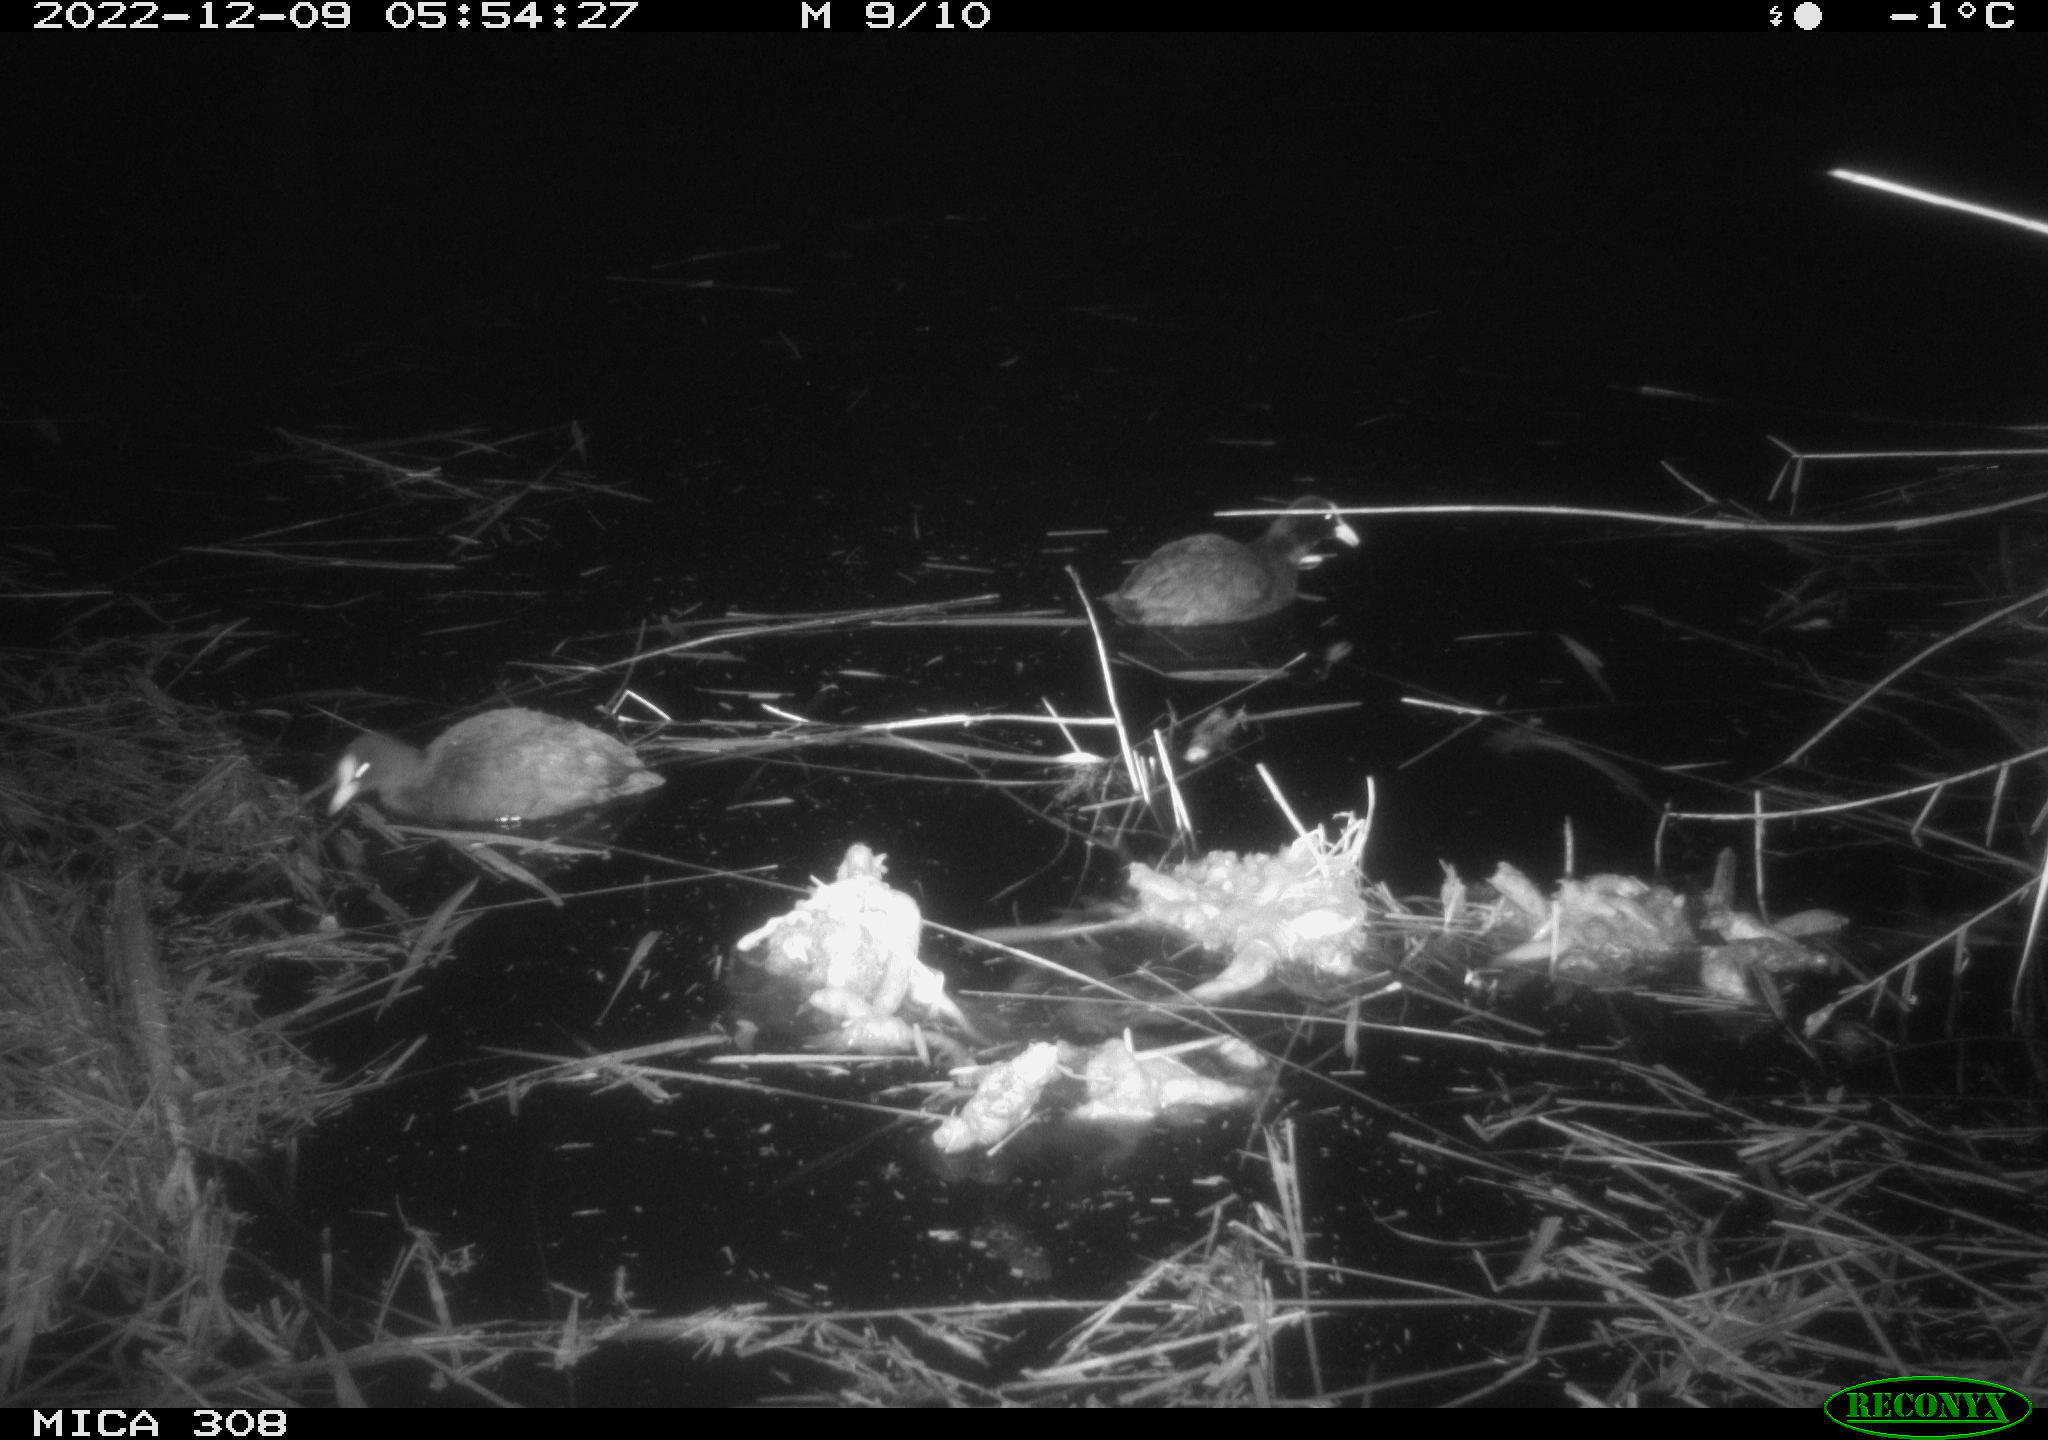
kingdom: Animalia
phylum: Chordata
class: Aves
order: Gruiformes
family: Rallidae
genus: Fulica
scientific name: Fulica atra
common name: Eurasian coot
